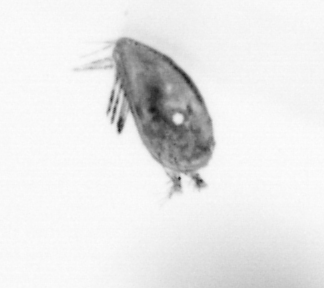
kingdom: Animalia
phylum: Arthropoda
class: Maxillopoda
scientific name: Maxillopoda
